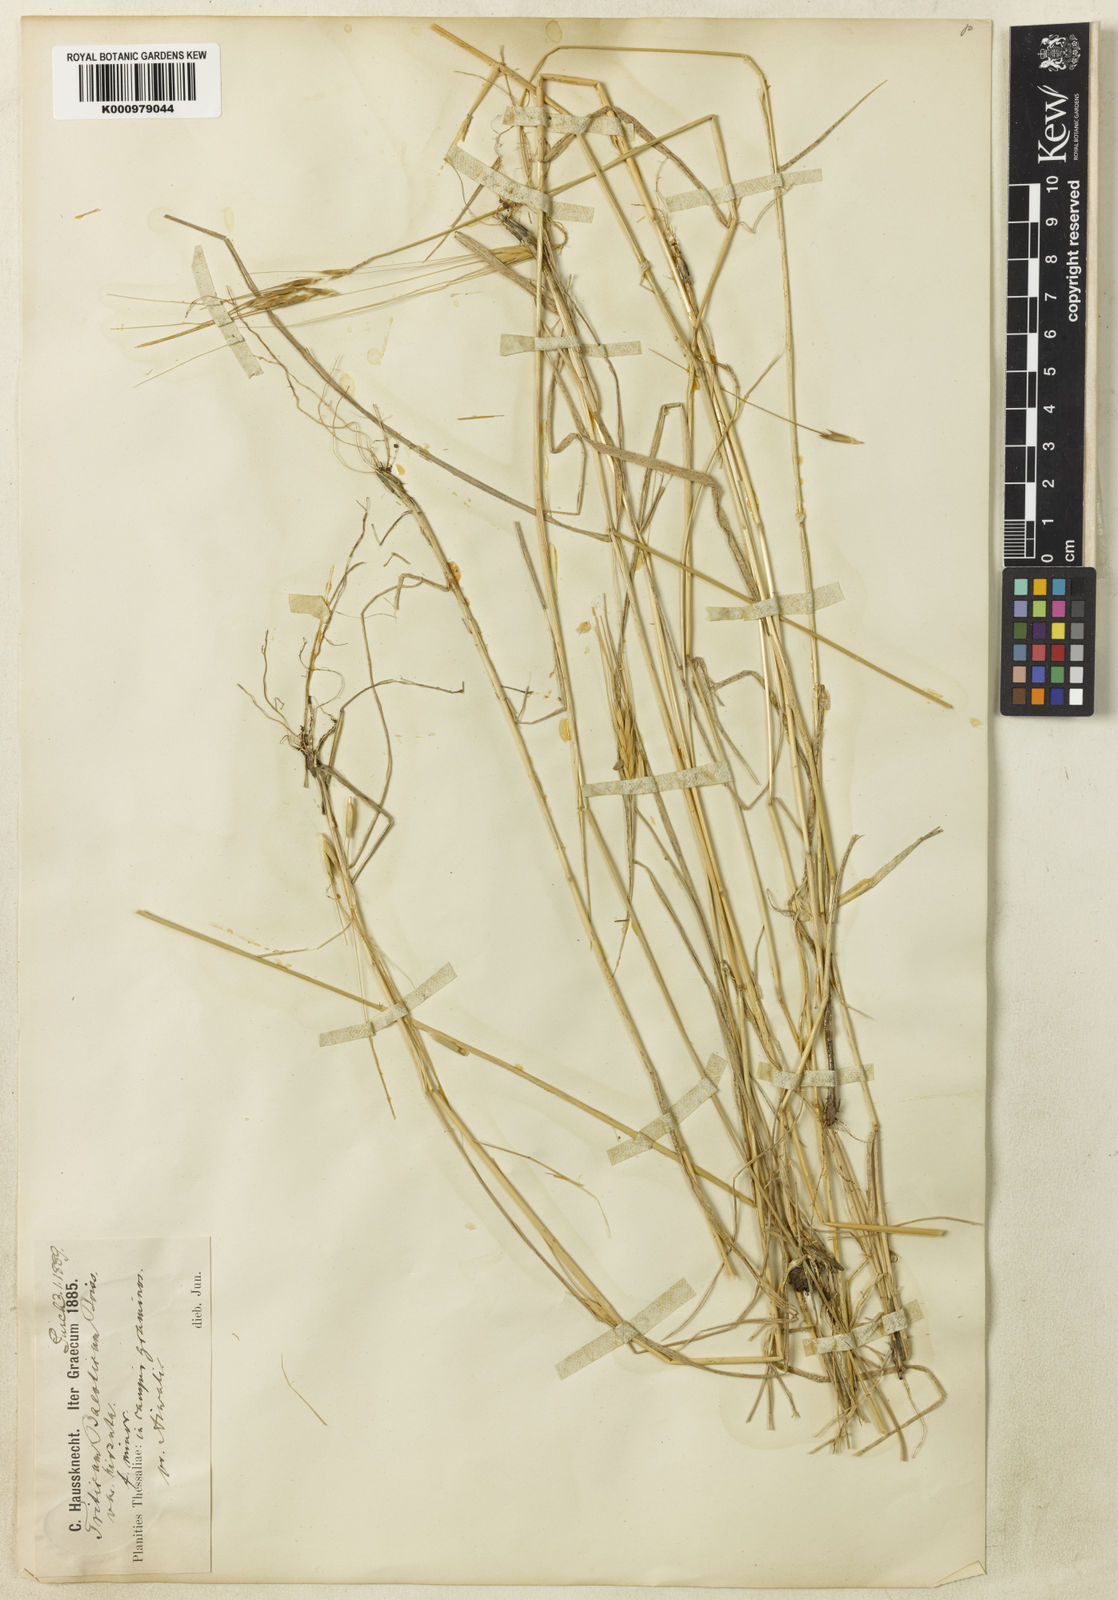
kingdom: Plantae
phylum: Tracheophyta
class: Liliopsida
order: Poales
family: Poaceae
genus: Triticum
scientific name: Triticum monococcum
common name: Einkorn
